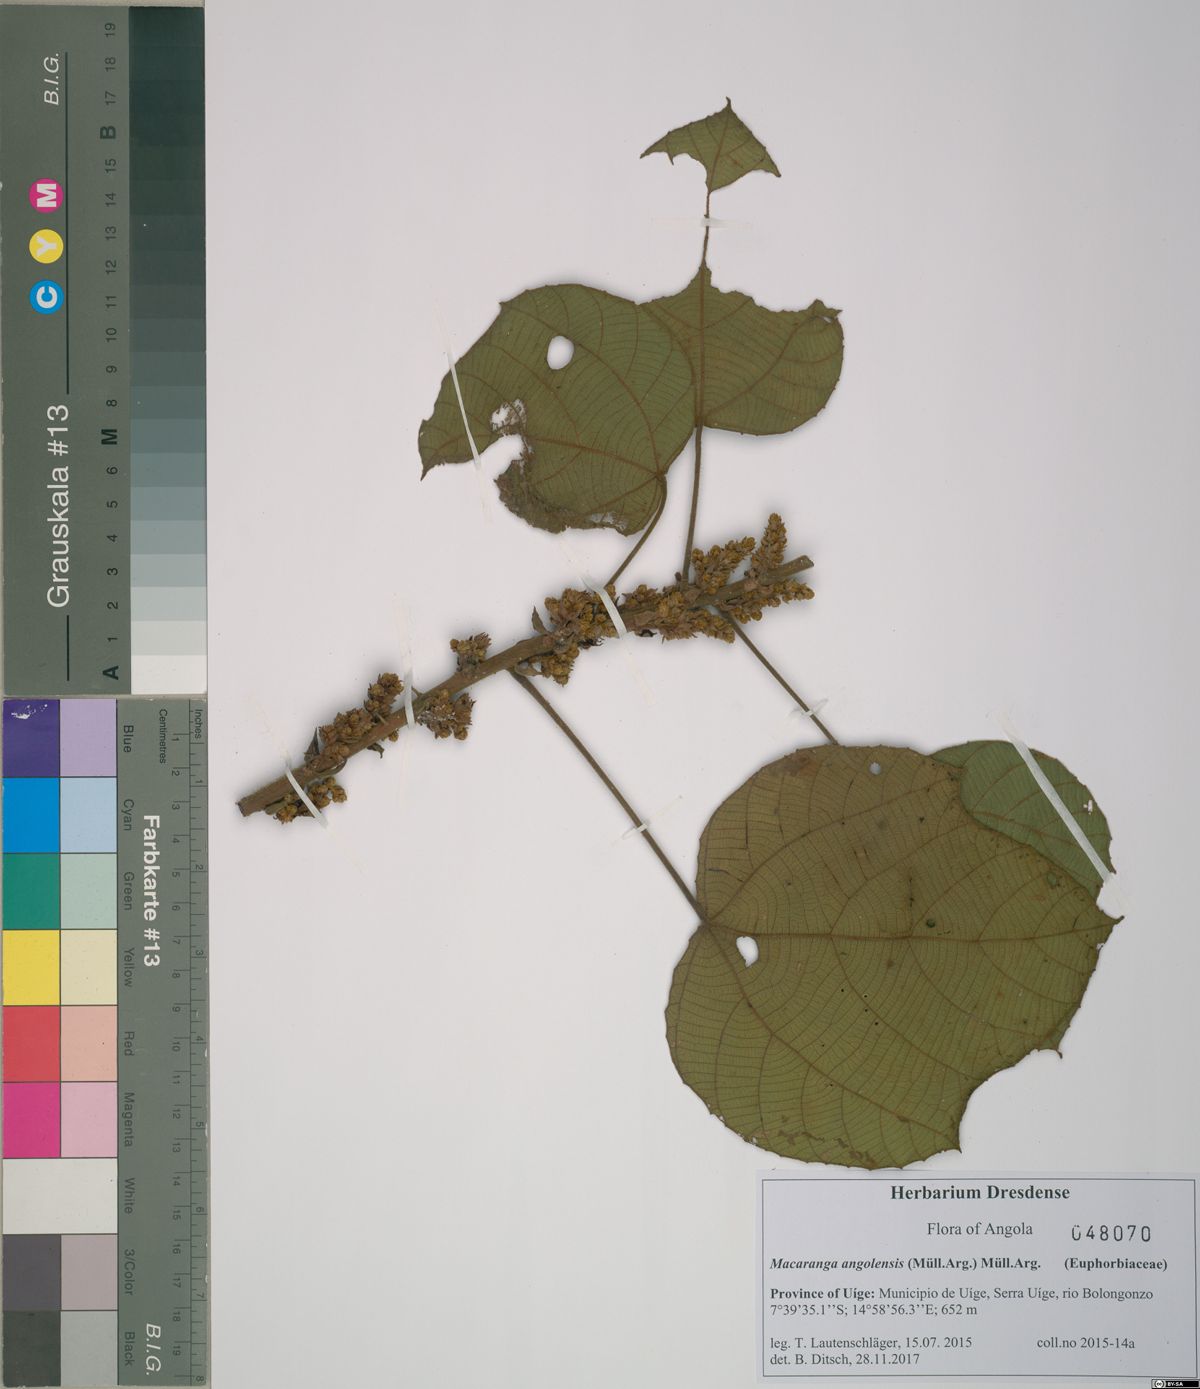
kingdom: Plantae
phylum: Tracheophyta
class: Magnoliopsida
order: Malpighiales
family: Euphorbiaceae
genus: Macaranga
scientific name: Macaranga angolensis
